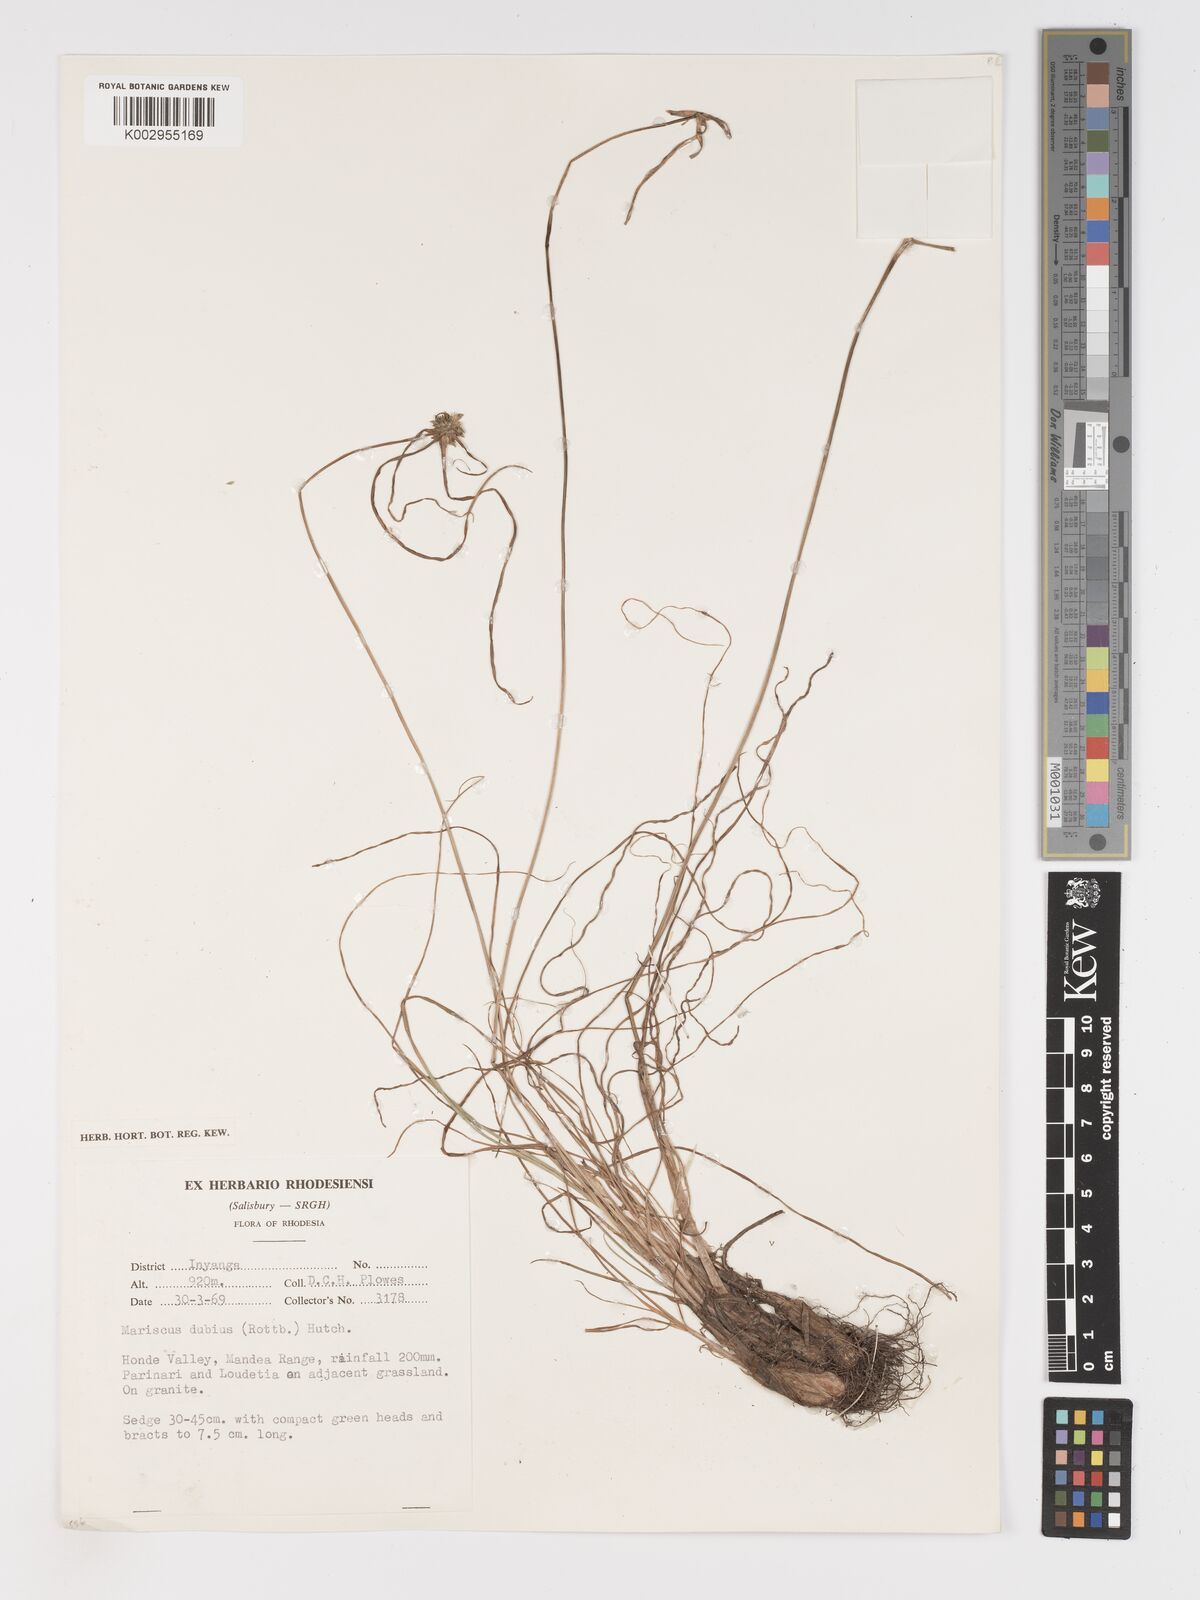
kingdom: Plantae
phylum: Tracheophyta
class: Liliopsida
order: Poales
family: Cyperaceae
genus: Cyperus
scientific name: Cyperus dubius
